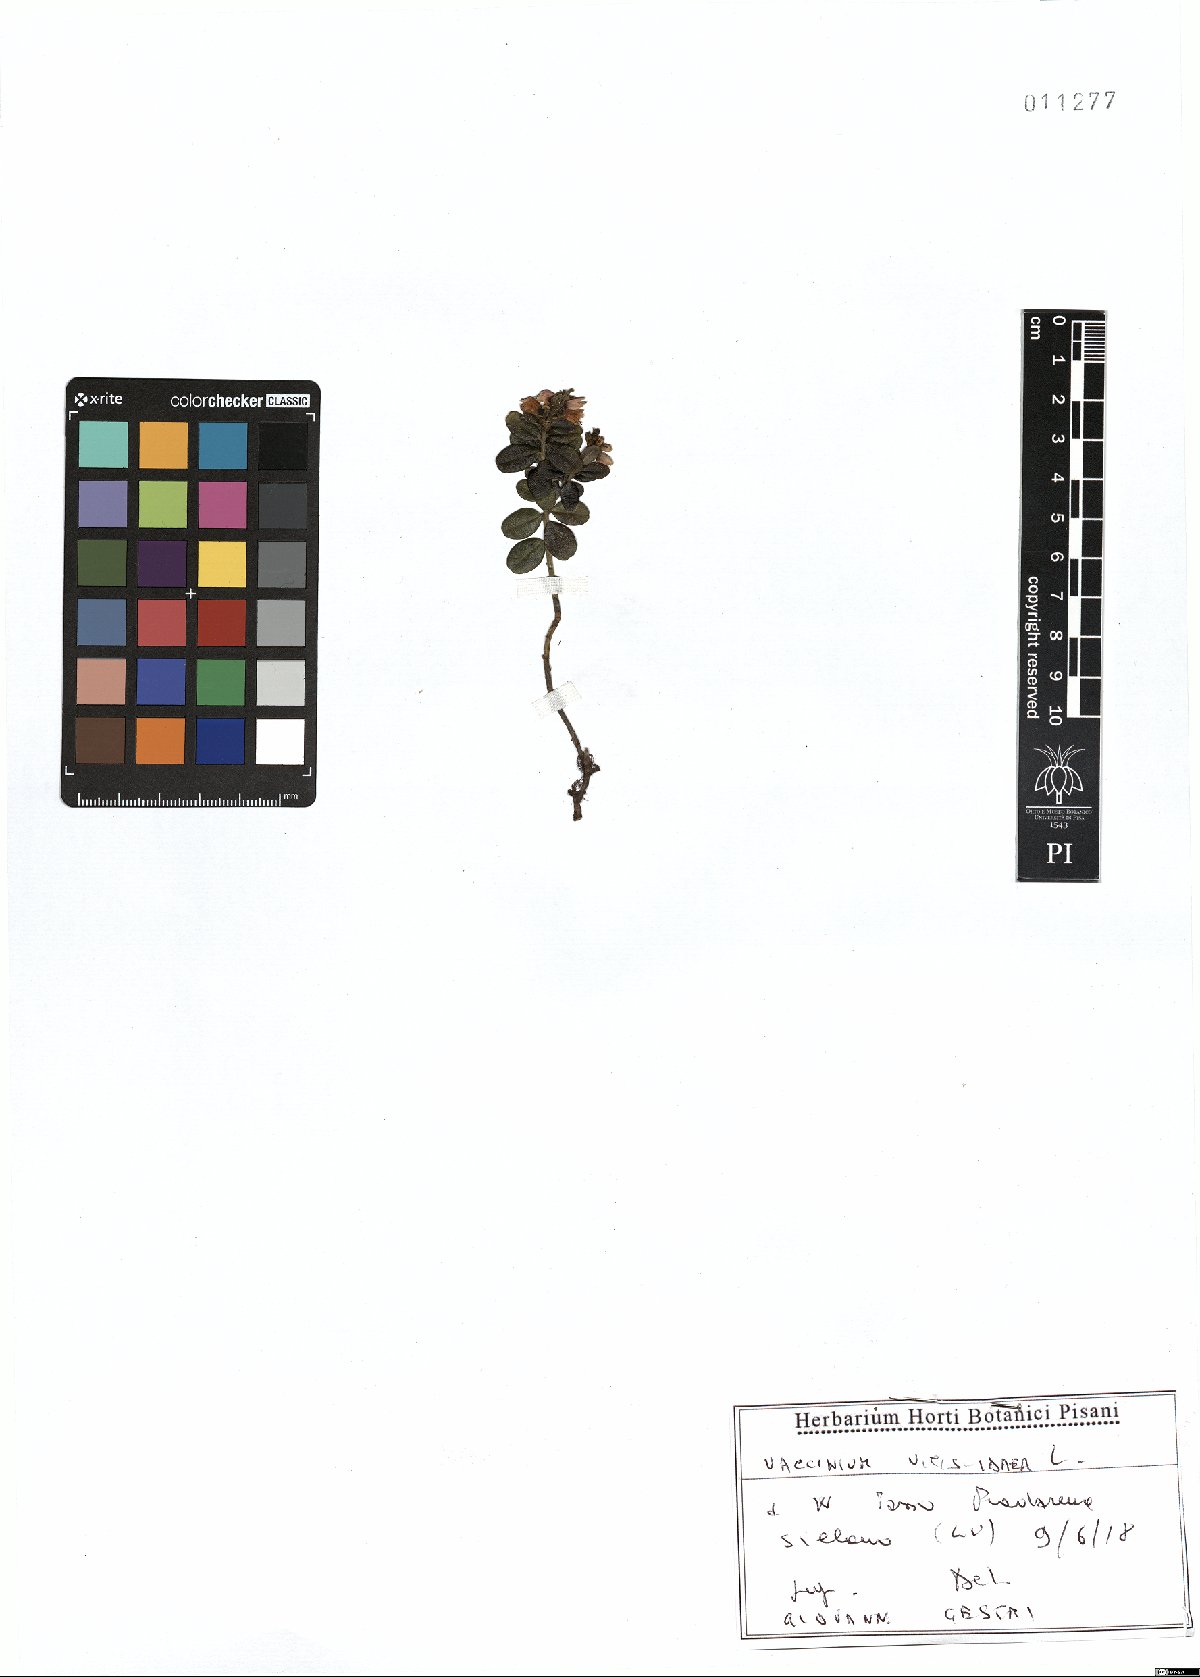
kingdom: Plantae
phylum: Tracheophyta
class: Magnoliopsida
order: Ericales
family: Ericaceae
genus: Vaccinium
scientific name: Vaccinium vitis-idaea
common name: Cowberry
